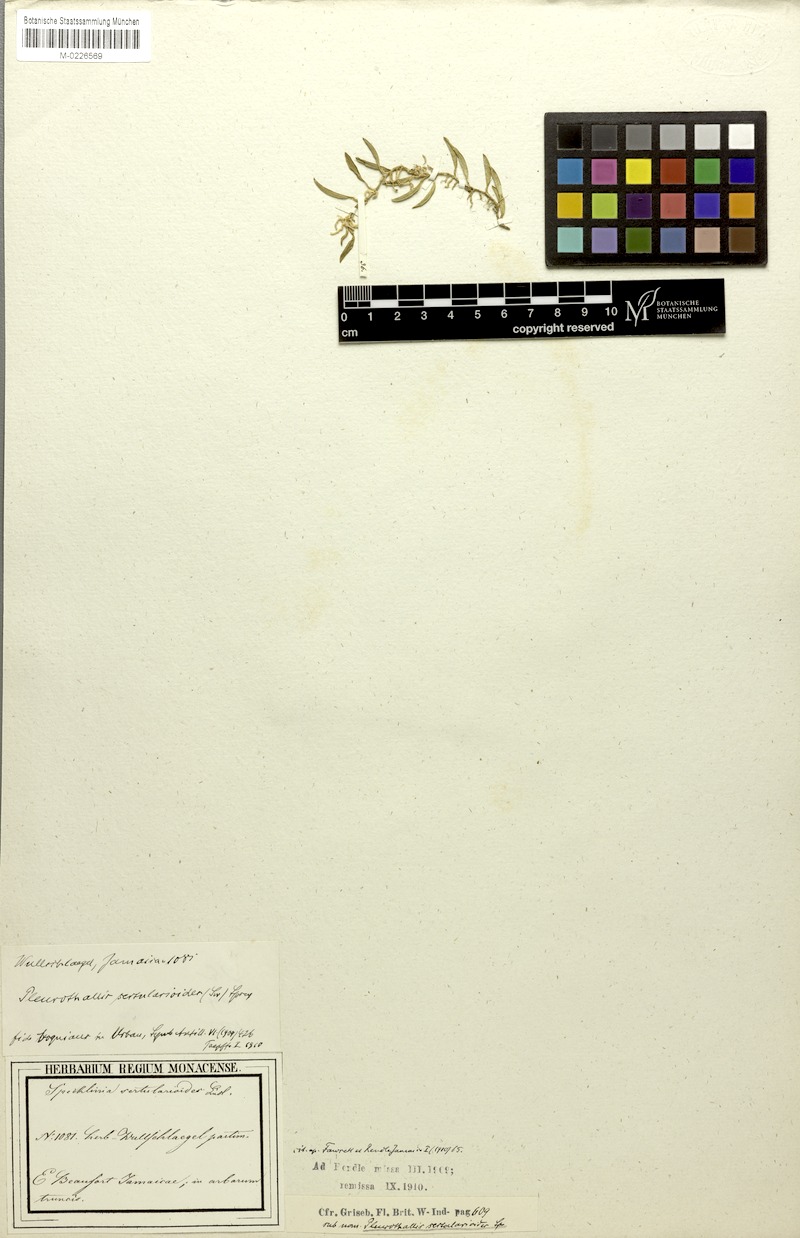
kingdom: Plantae
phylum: Tracheophyta
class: Liliopsida
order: Asparagales
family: Orchidaceae
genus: Anathallis
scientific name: Anathallis sertularioides
